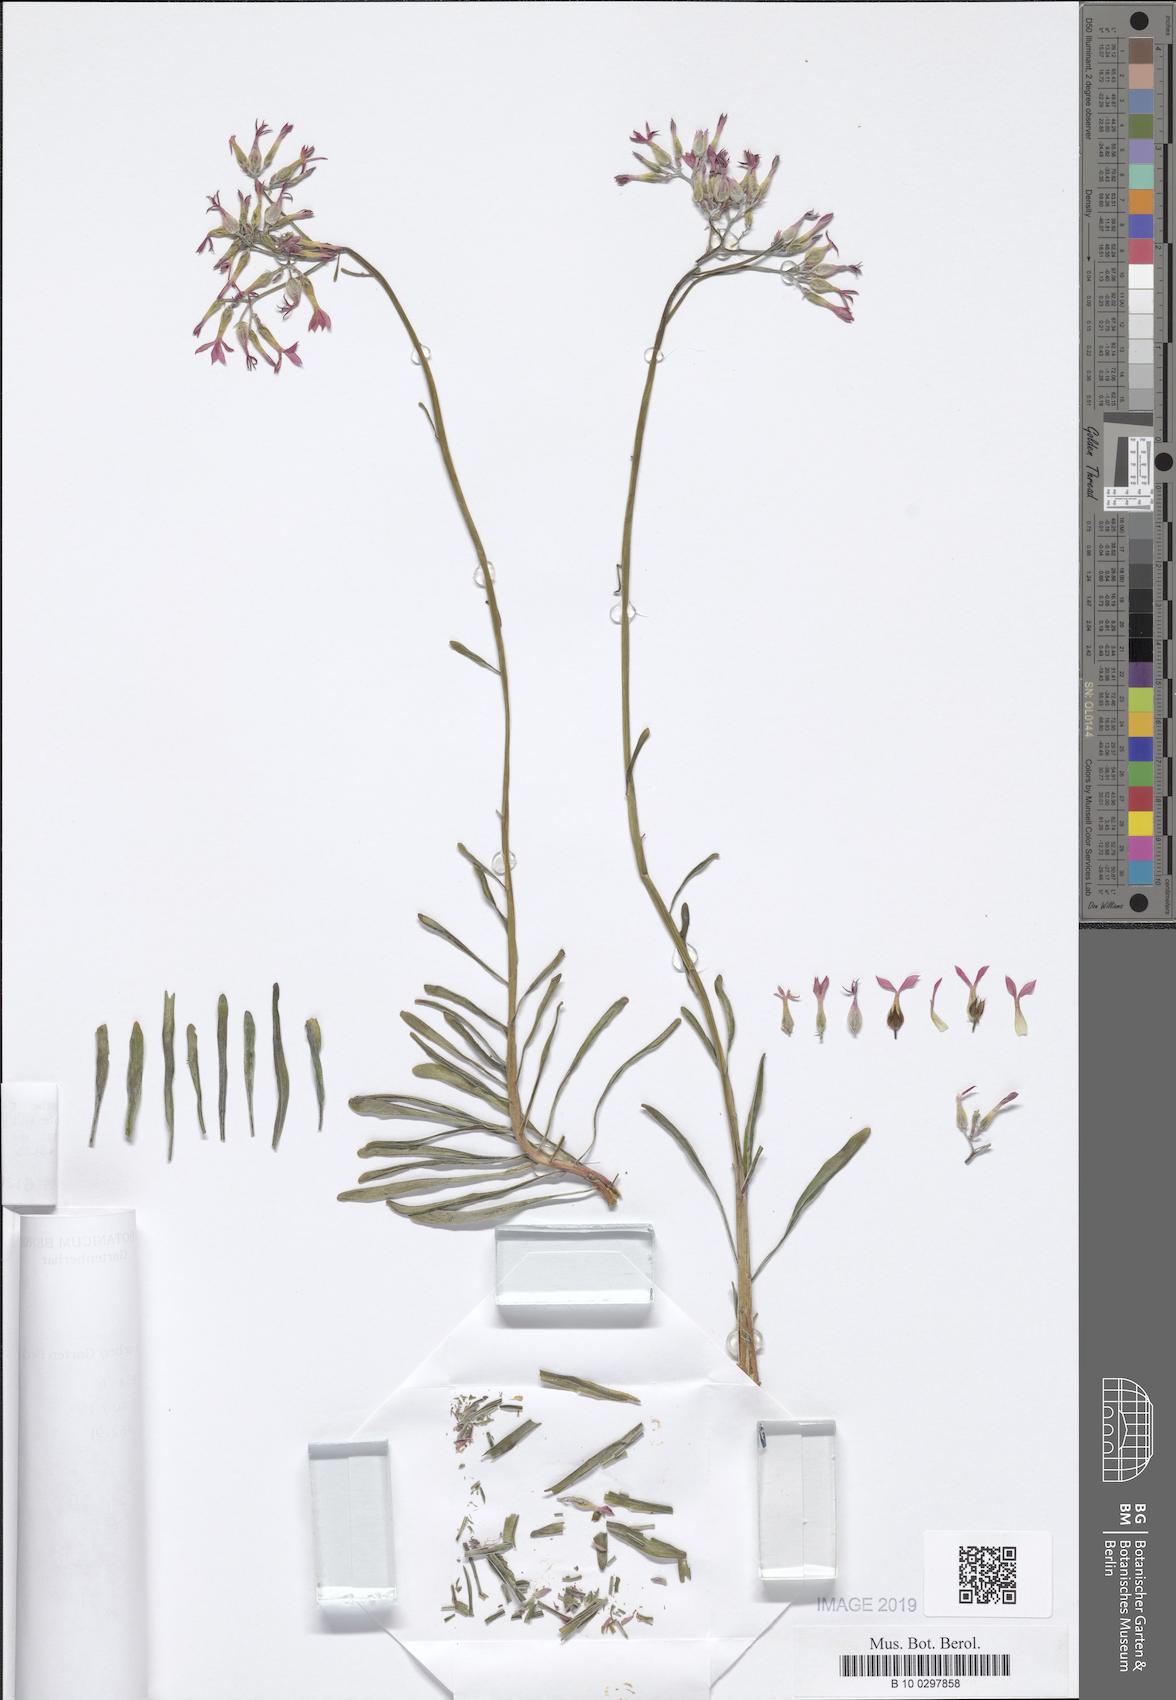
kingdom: Plantae
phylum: Tracheophyta
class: Magnoliopsida
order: Saxifragales
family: Crassulaceae
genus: Kalanchoe
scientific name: Kalanchoe
